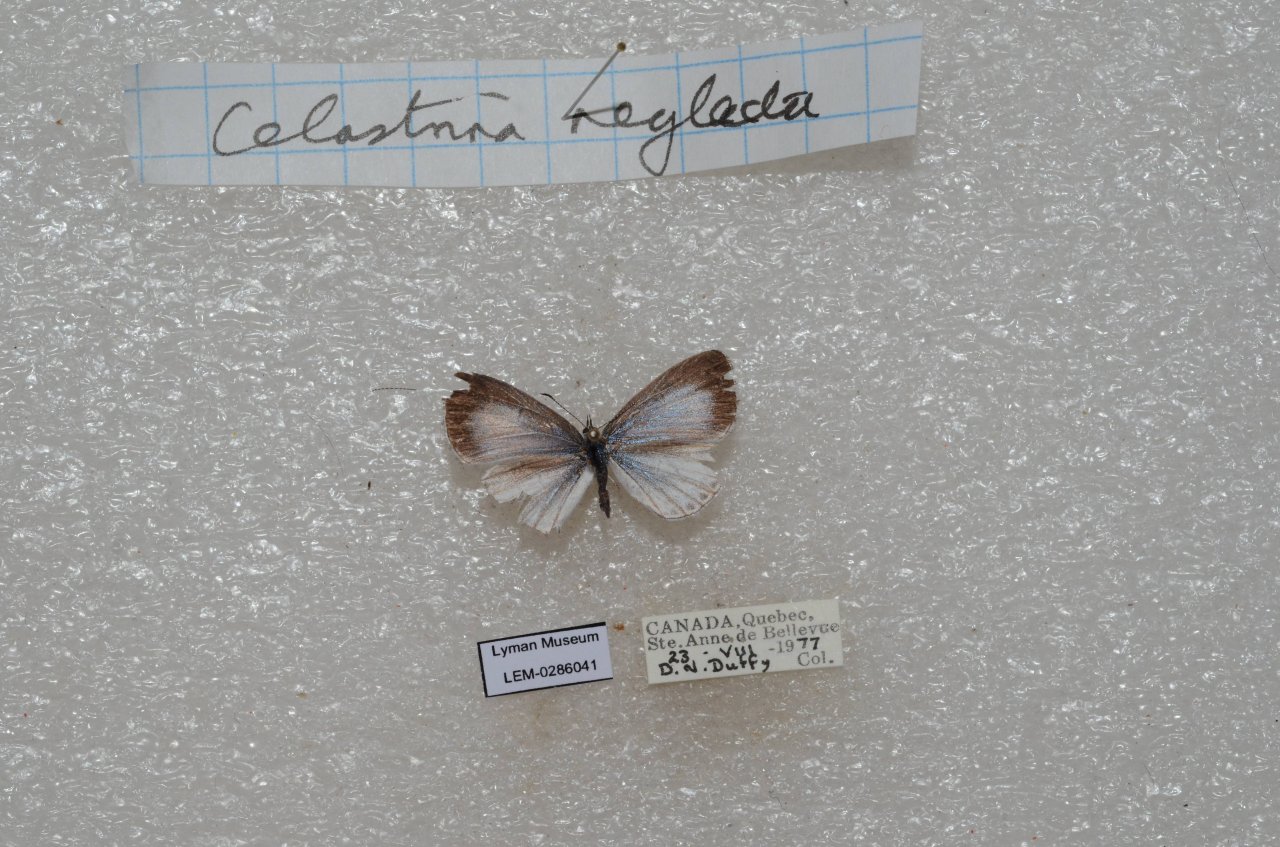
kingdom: Animalia
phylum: Arthropoda
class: Insecta
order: Lepidoptera
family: Lycaenidae
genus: Celastrina
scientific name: Celastrina lucia
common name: Northern Spring Azure
